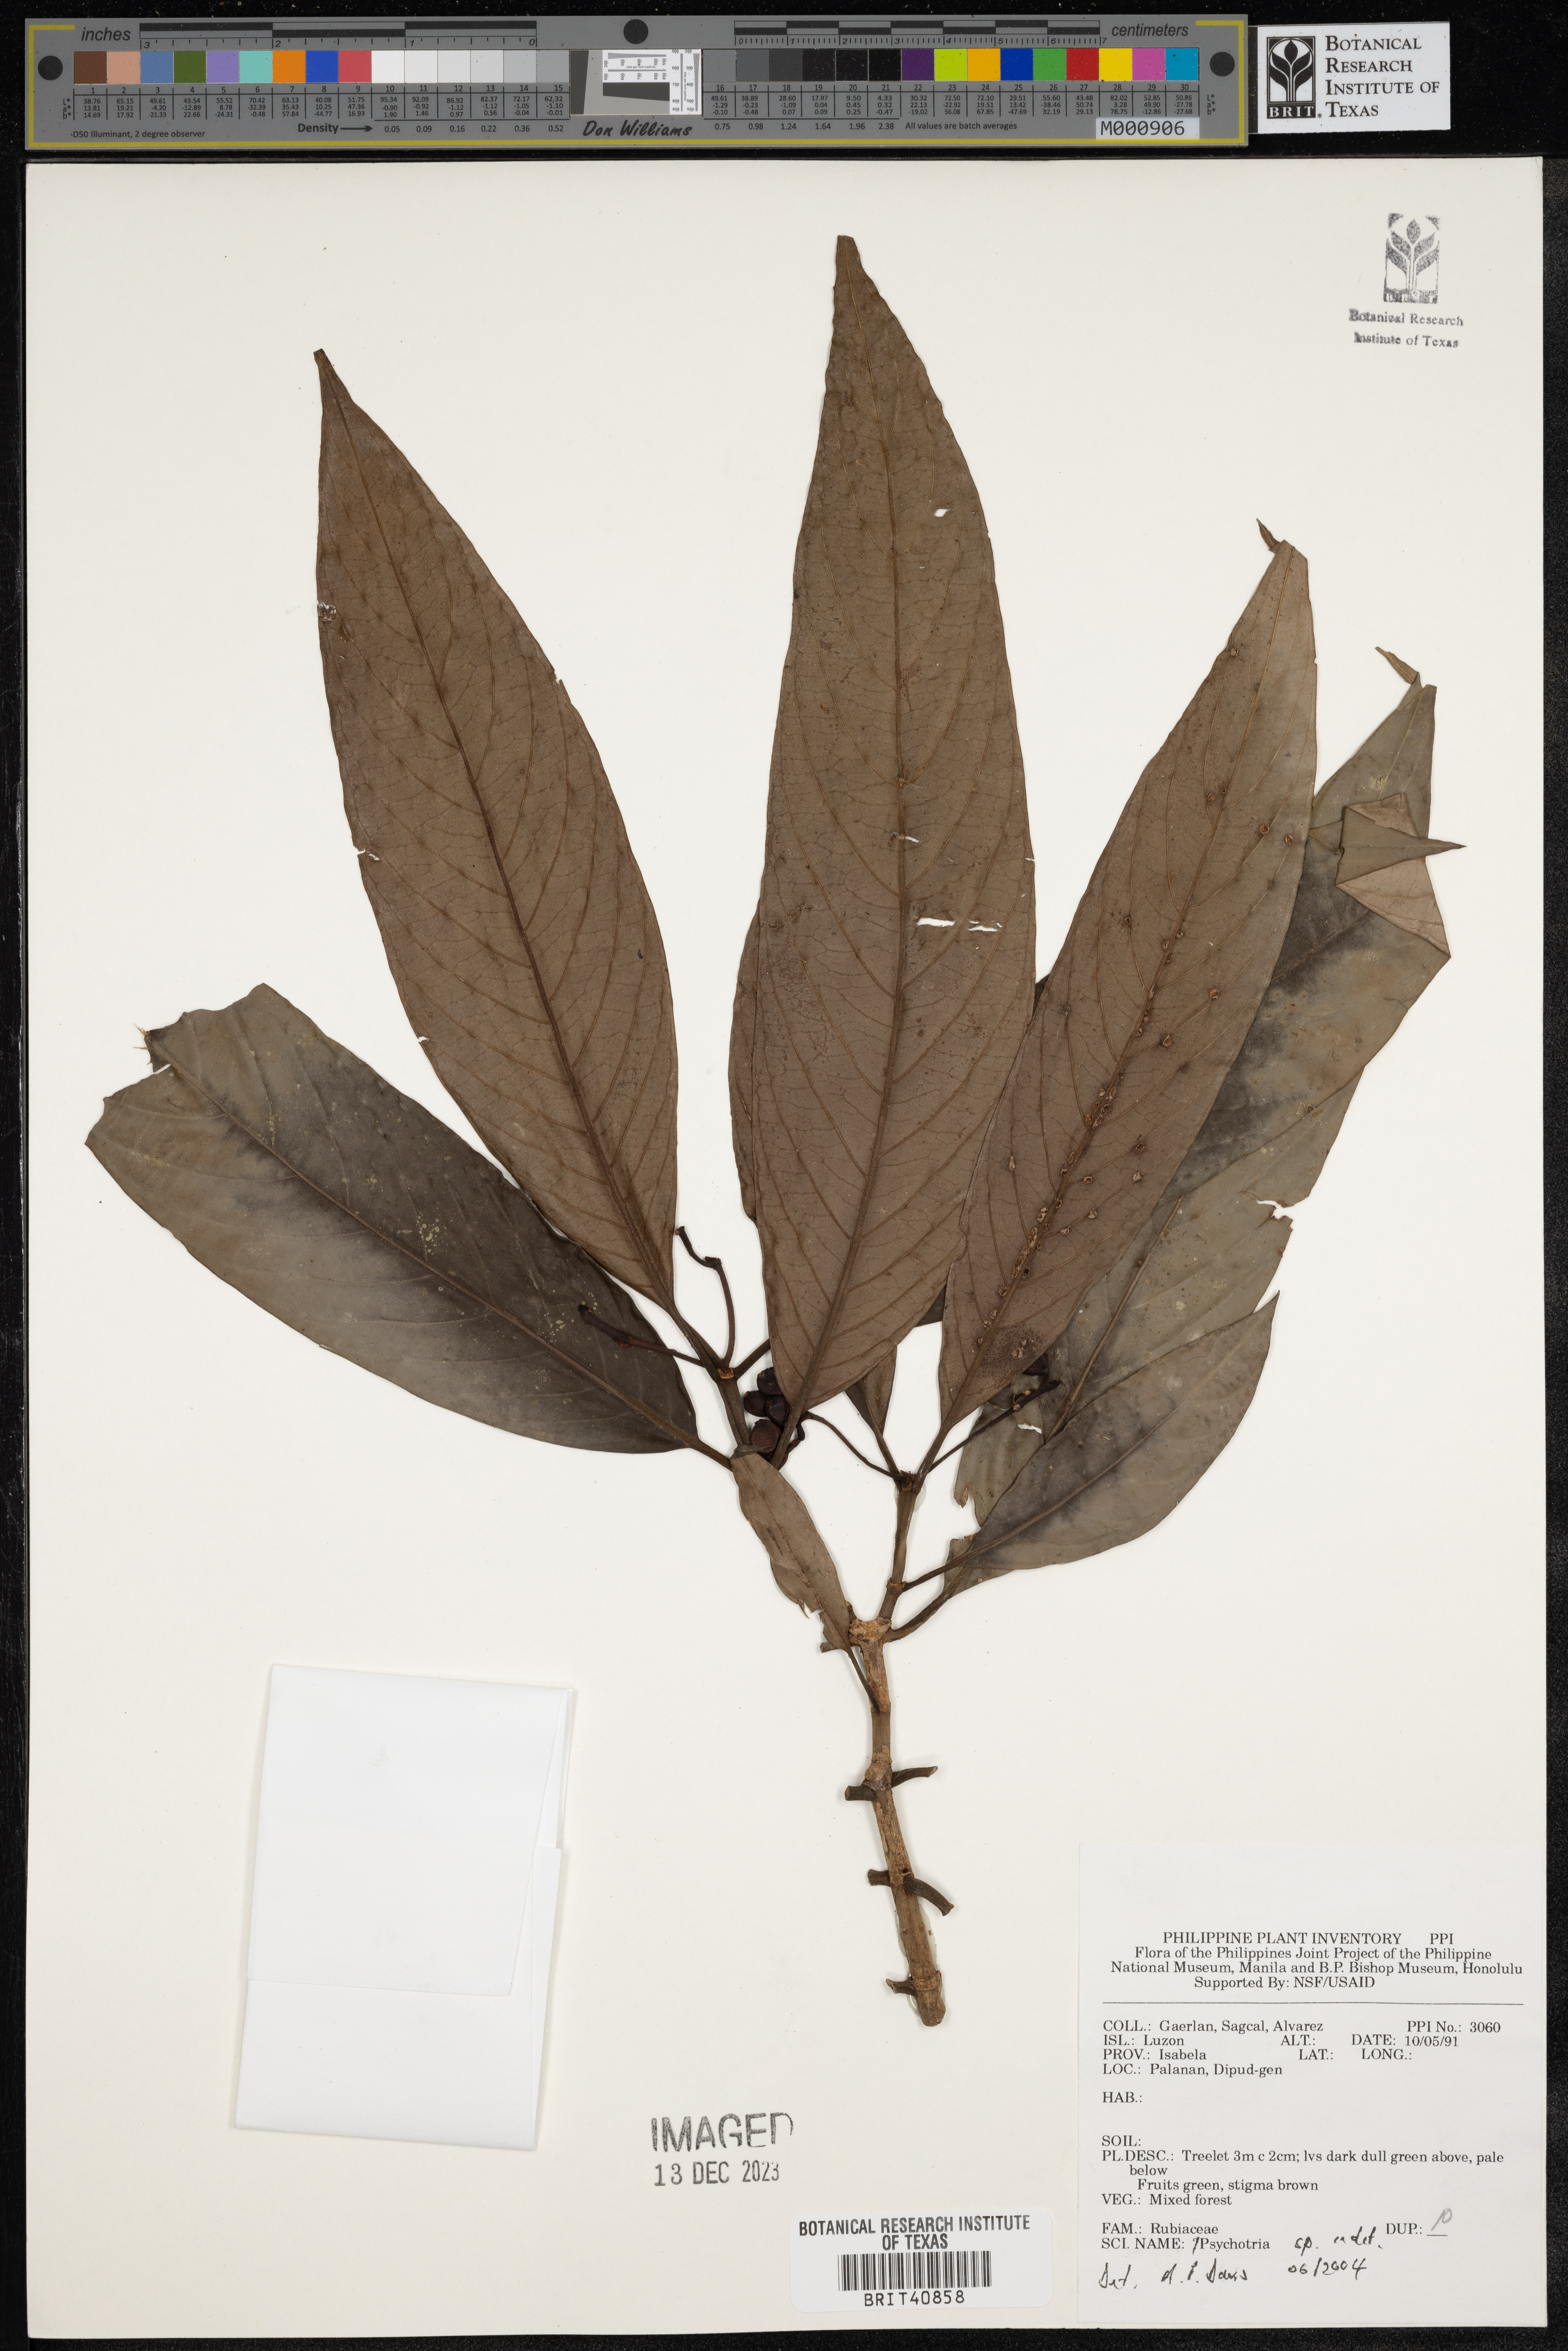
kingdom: Plantae
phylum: Tracheophyta
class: Magnoliopsida
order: Gentianales
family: Rubiaceae
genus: Psychotria
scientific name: Psychotria
